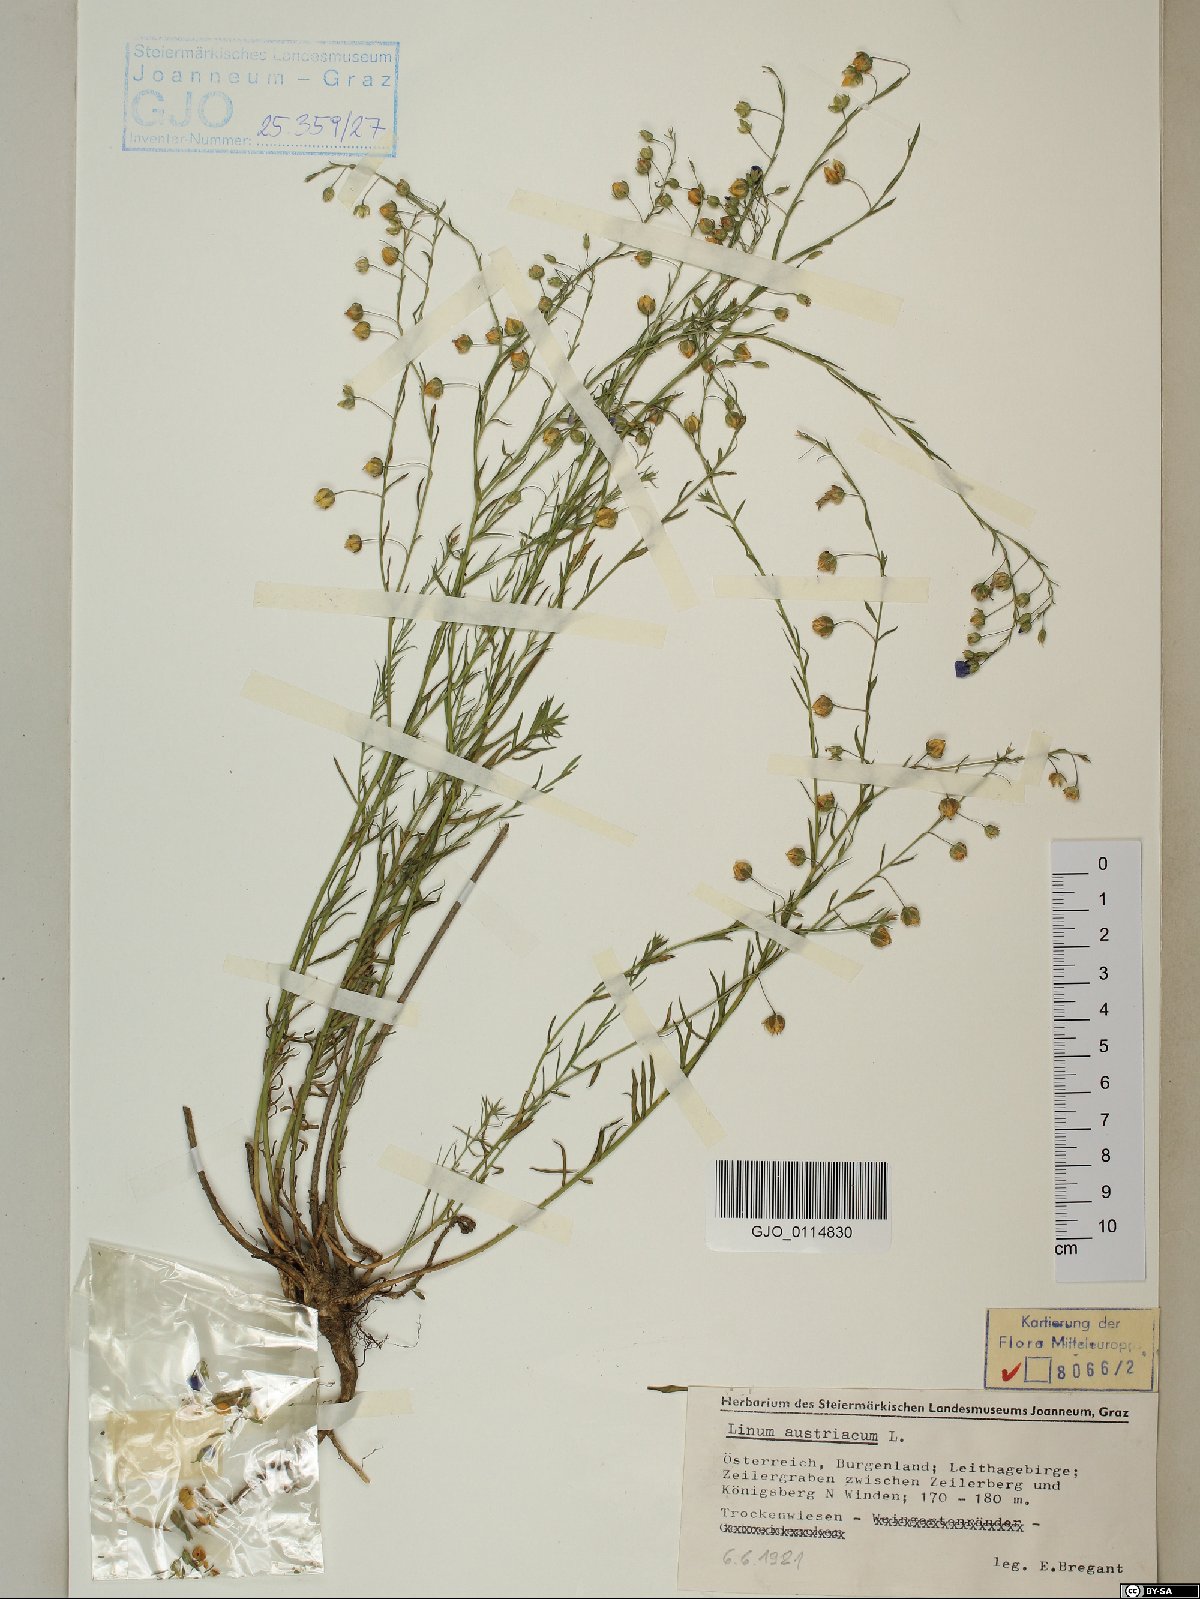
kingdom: Plantae
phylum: Tracheophyta
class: Magnoliopsida
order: Malpighiales
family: Linaceae
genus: Linum
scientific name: Linum austriacum
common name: Austrian flax
